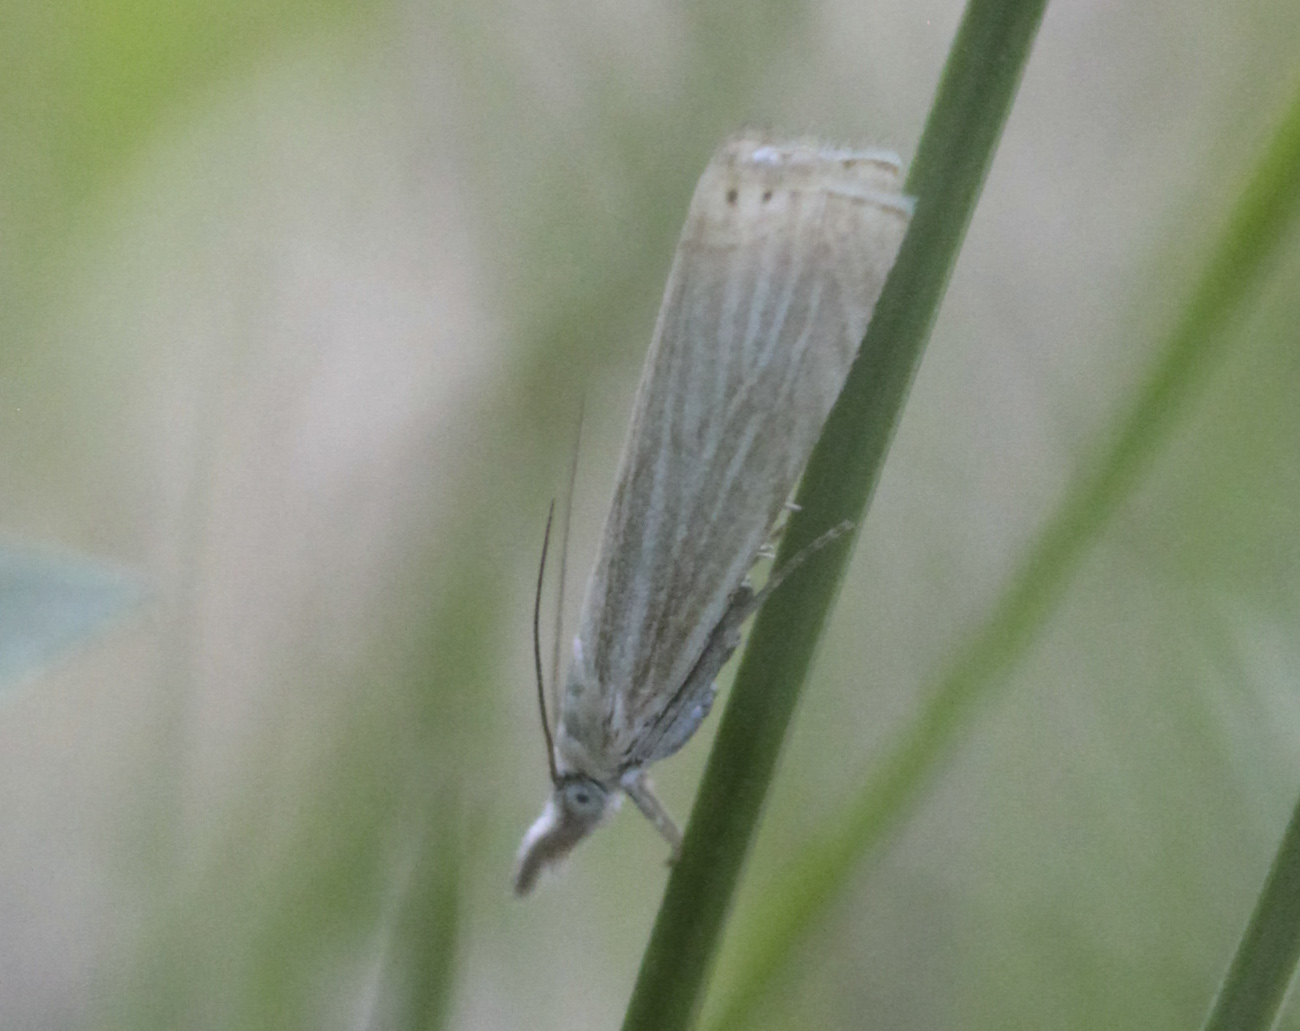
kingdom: Animalia
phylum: Arthropoda
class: Insecta
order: Lepidoptera
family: Crambidae
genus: Chrysoteuchia
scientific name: Chrysoteuchia culmella
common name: Garden grass-veneer
